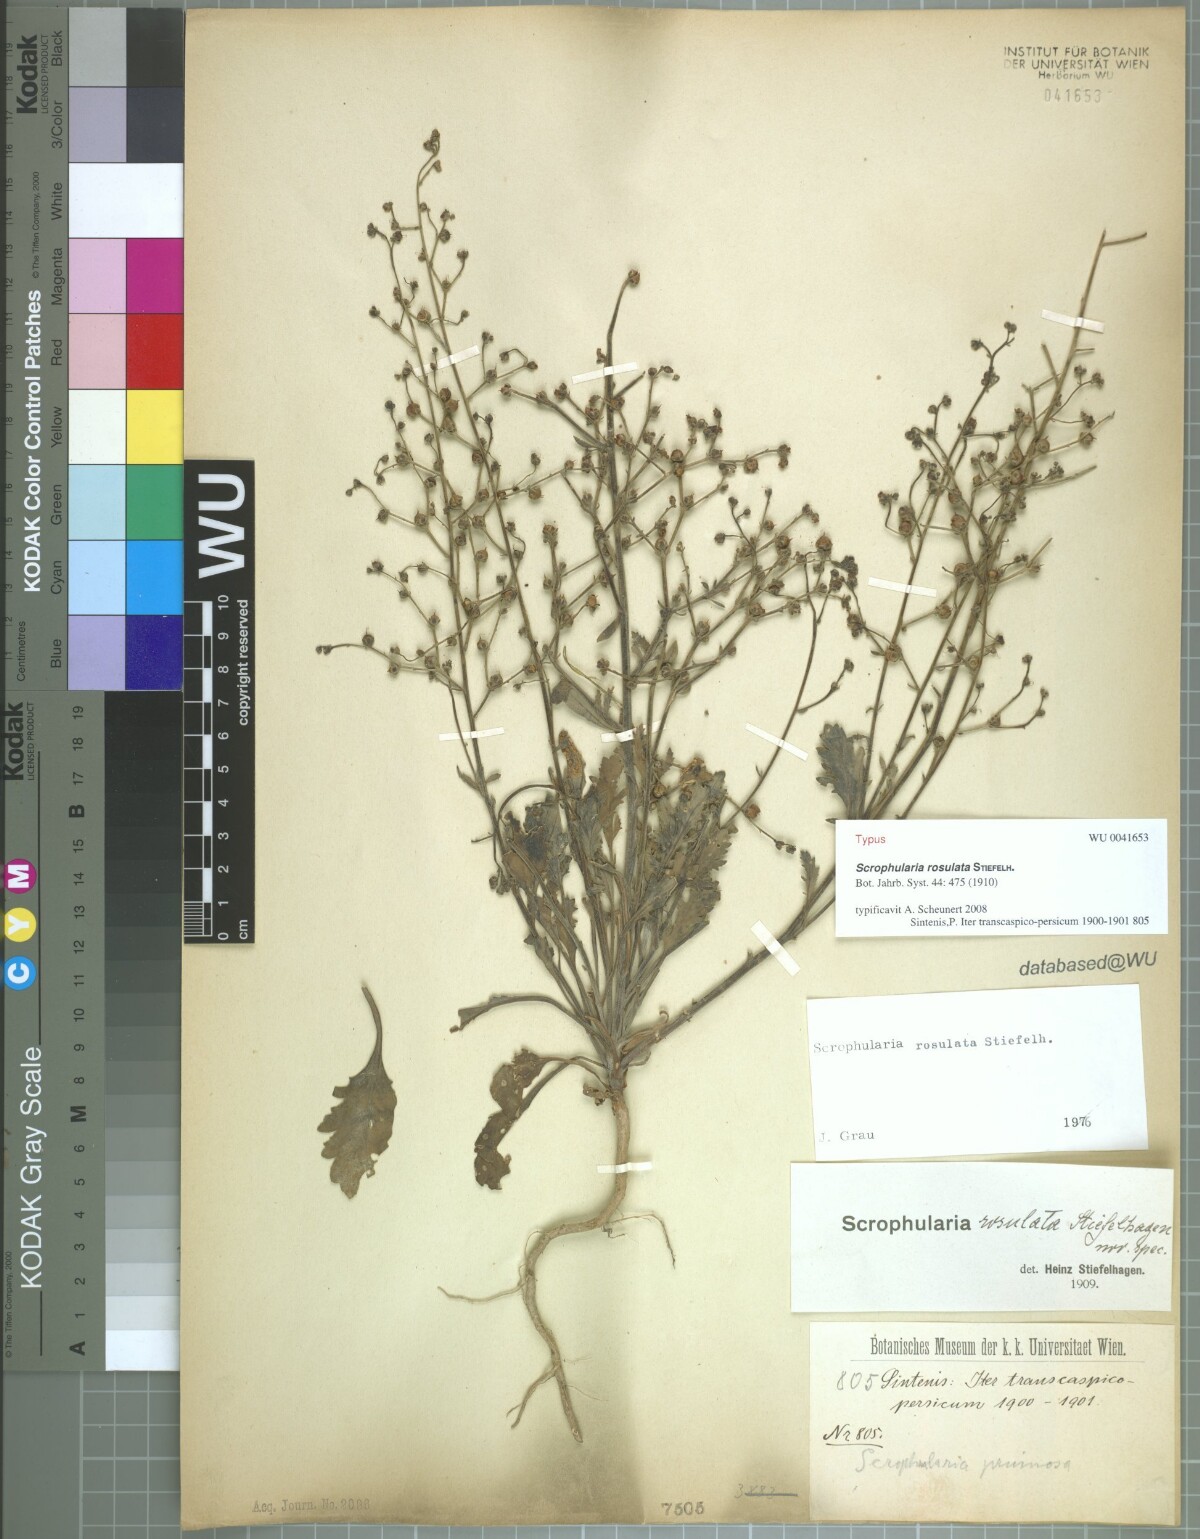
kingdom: Plantae
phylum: Tracheophyta
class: Magnoliopsida
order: Lamiales
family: Scrophulariaceae
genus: Scrophularia
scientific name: Scrophularia rosulata
